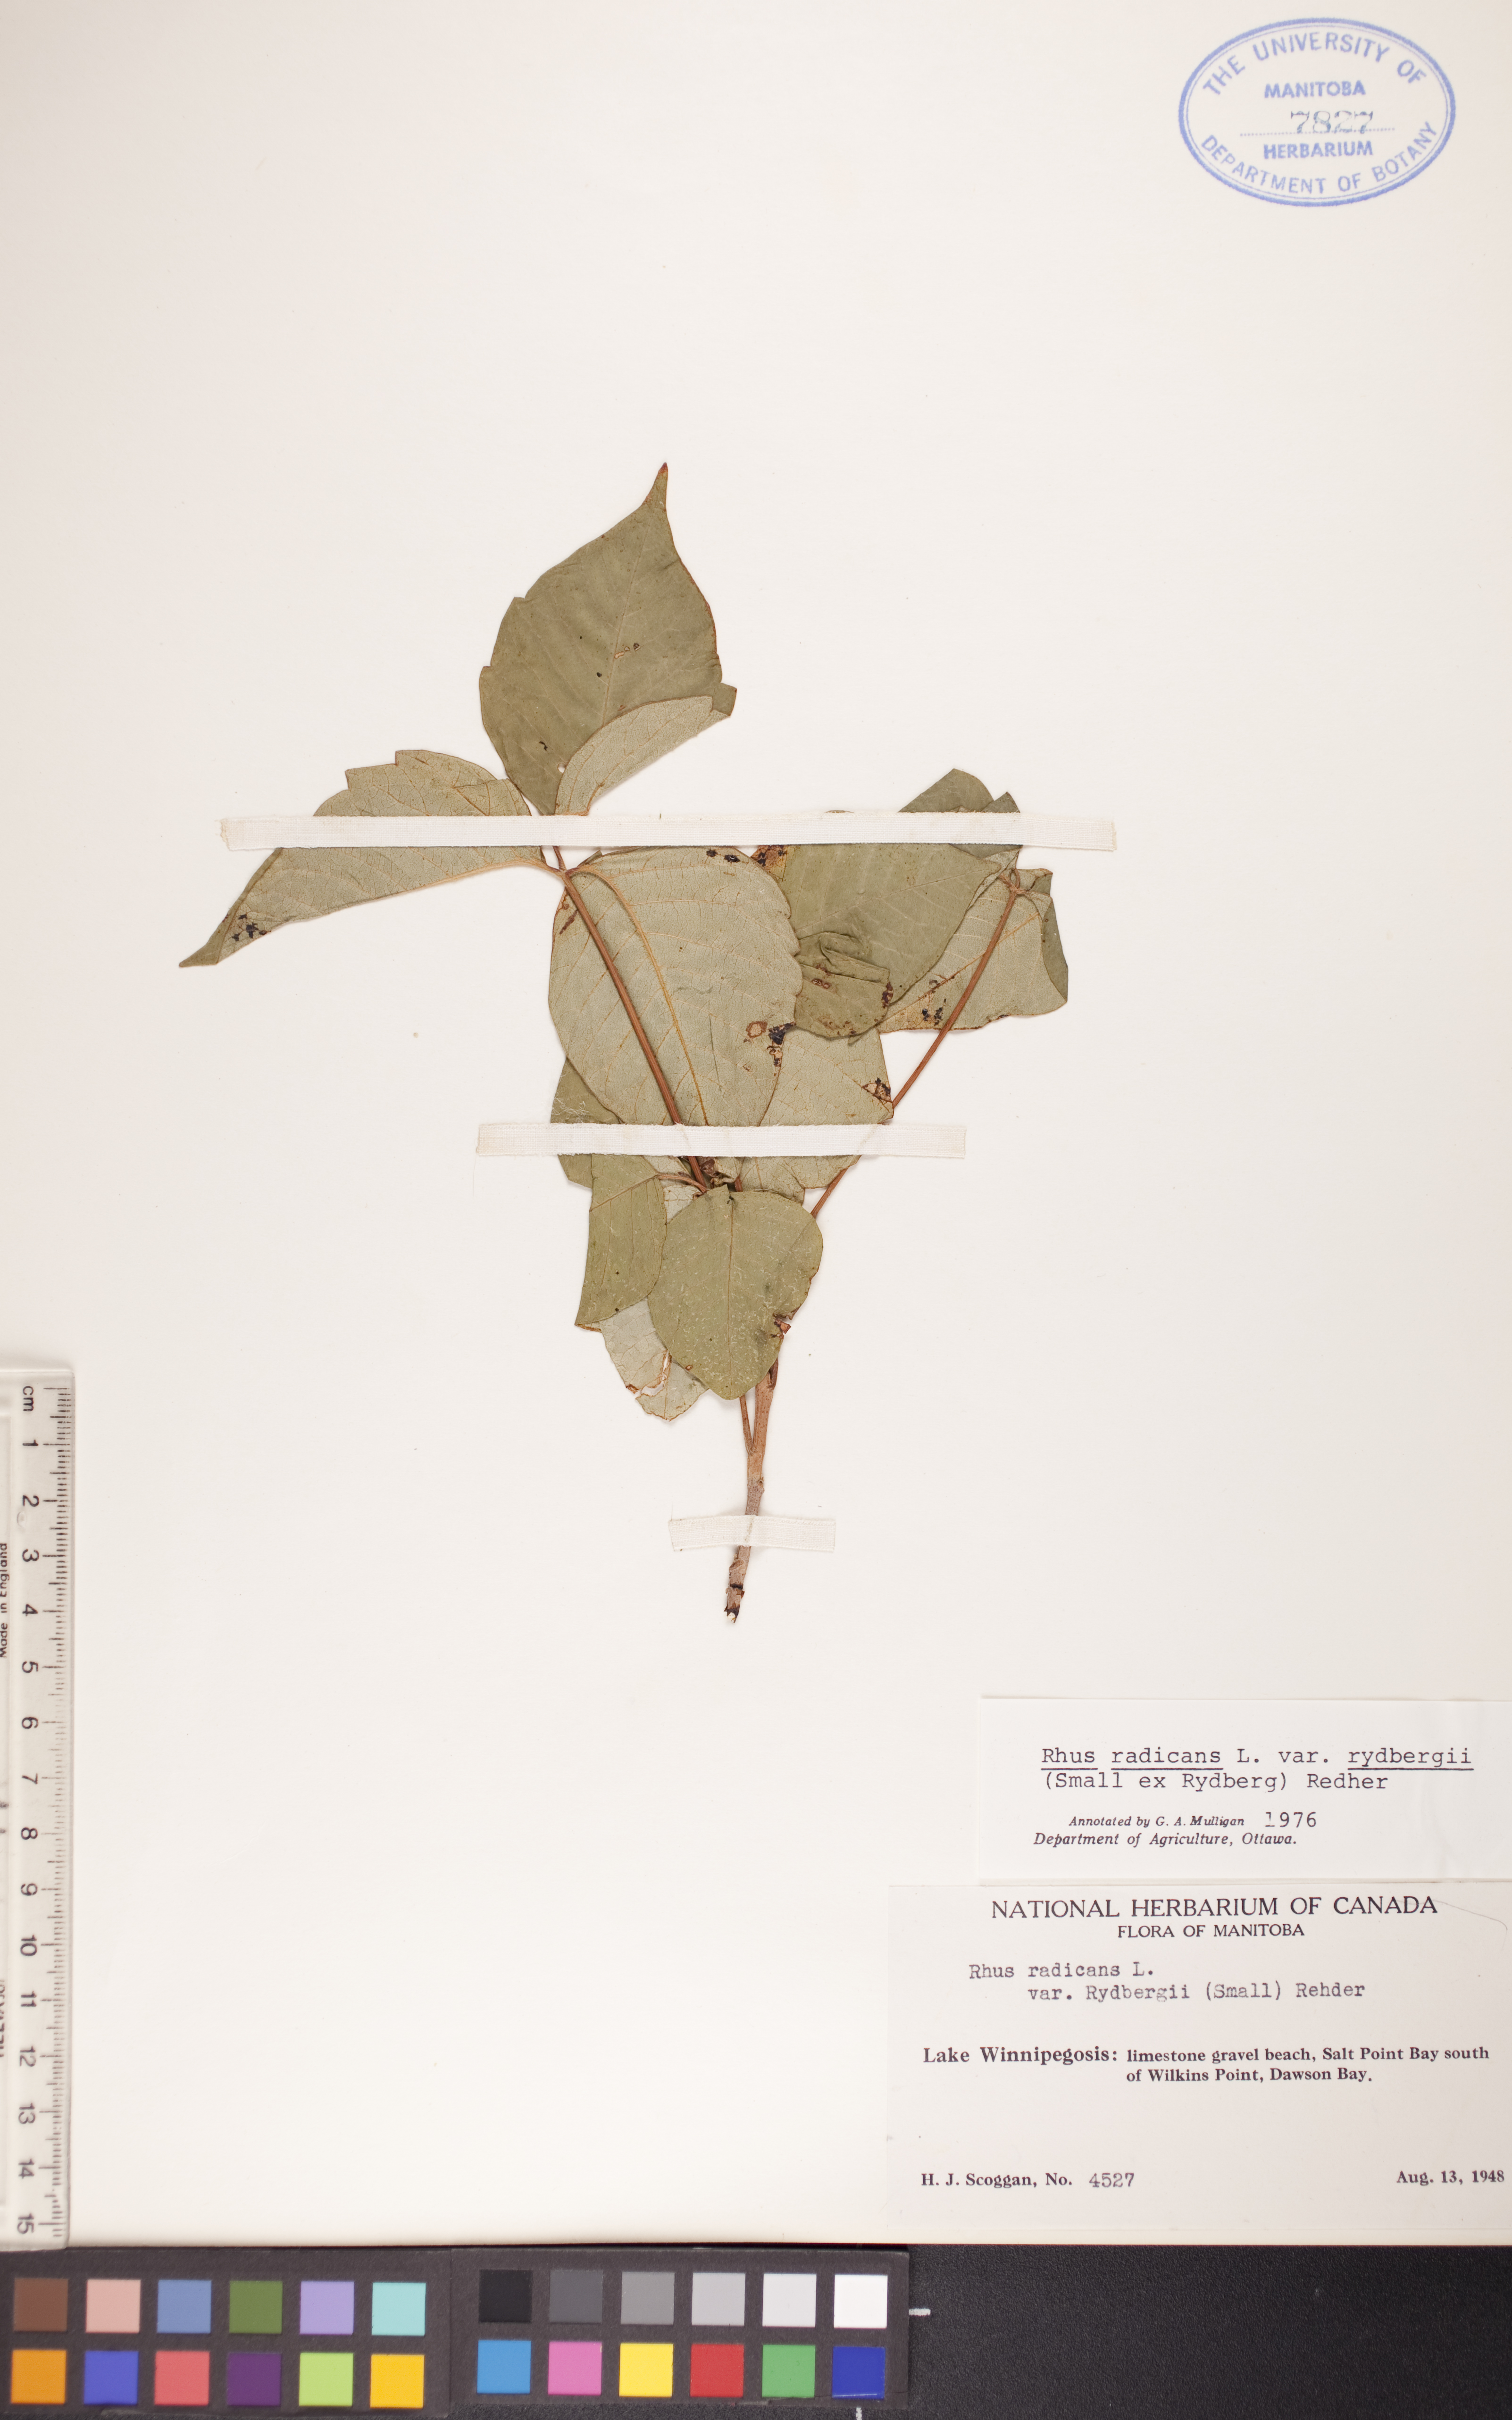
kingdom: Plantae
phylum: Tracheophyta
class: Magnoliopsida
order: Sapindales
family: Anacardiaceae
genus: Toxicodendron
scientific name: Toxicodendron rydbergii
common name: Rydberg's poison-ivy
